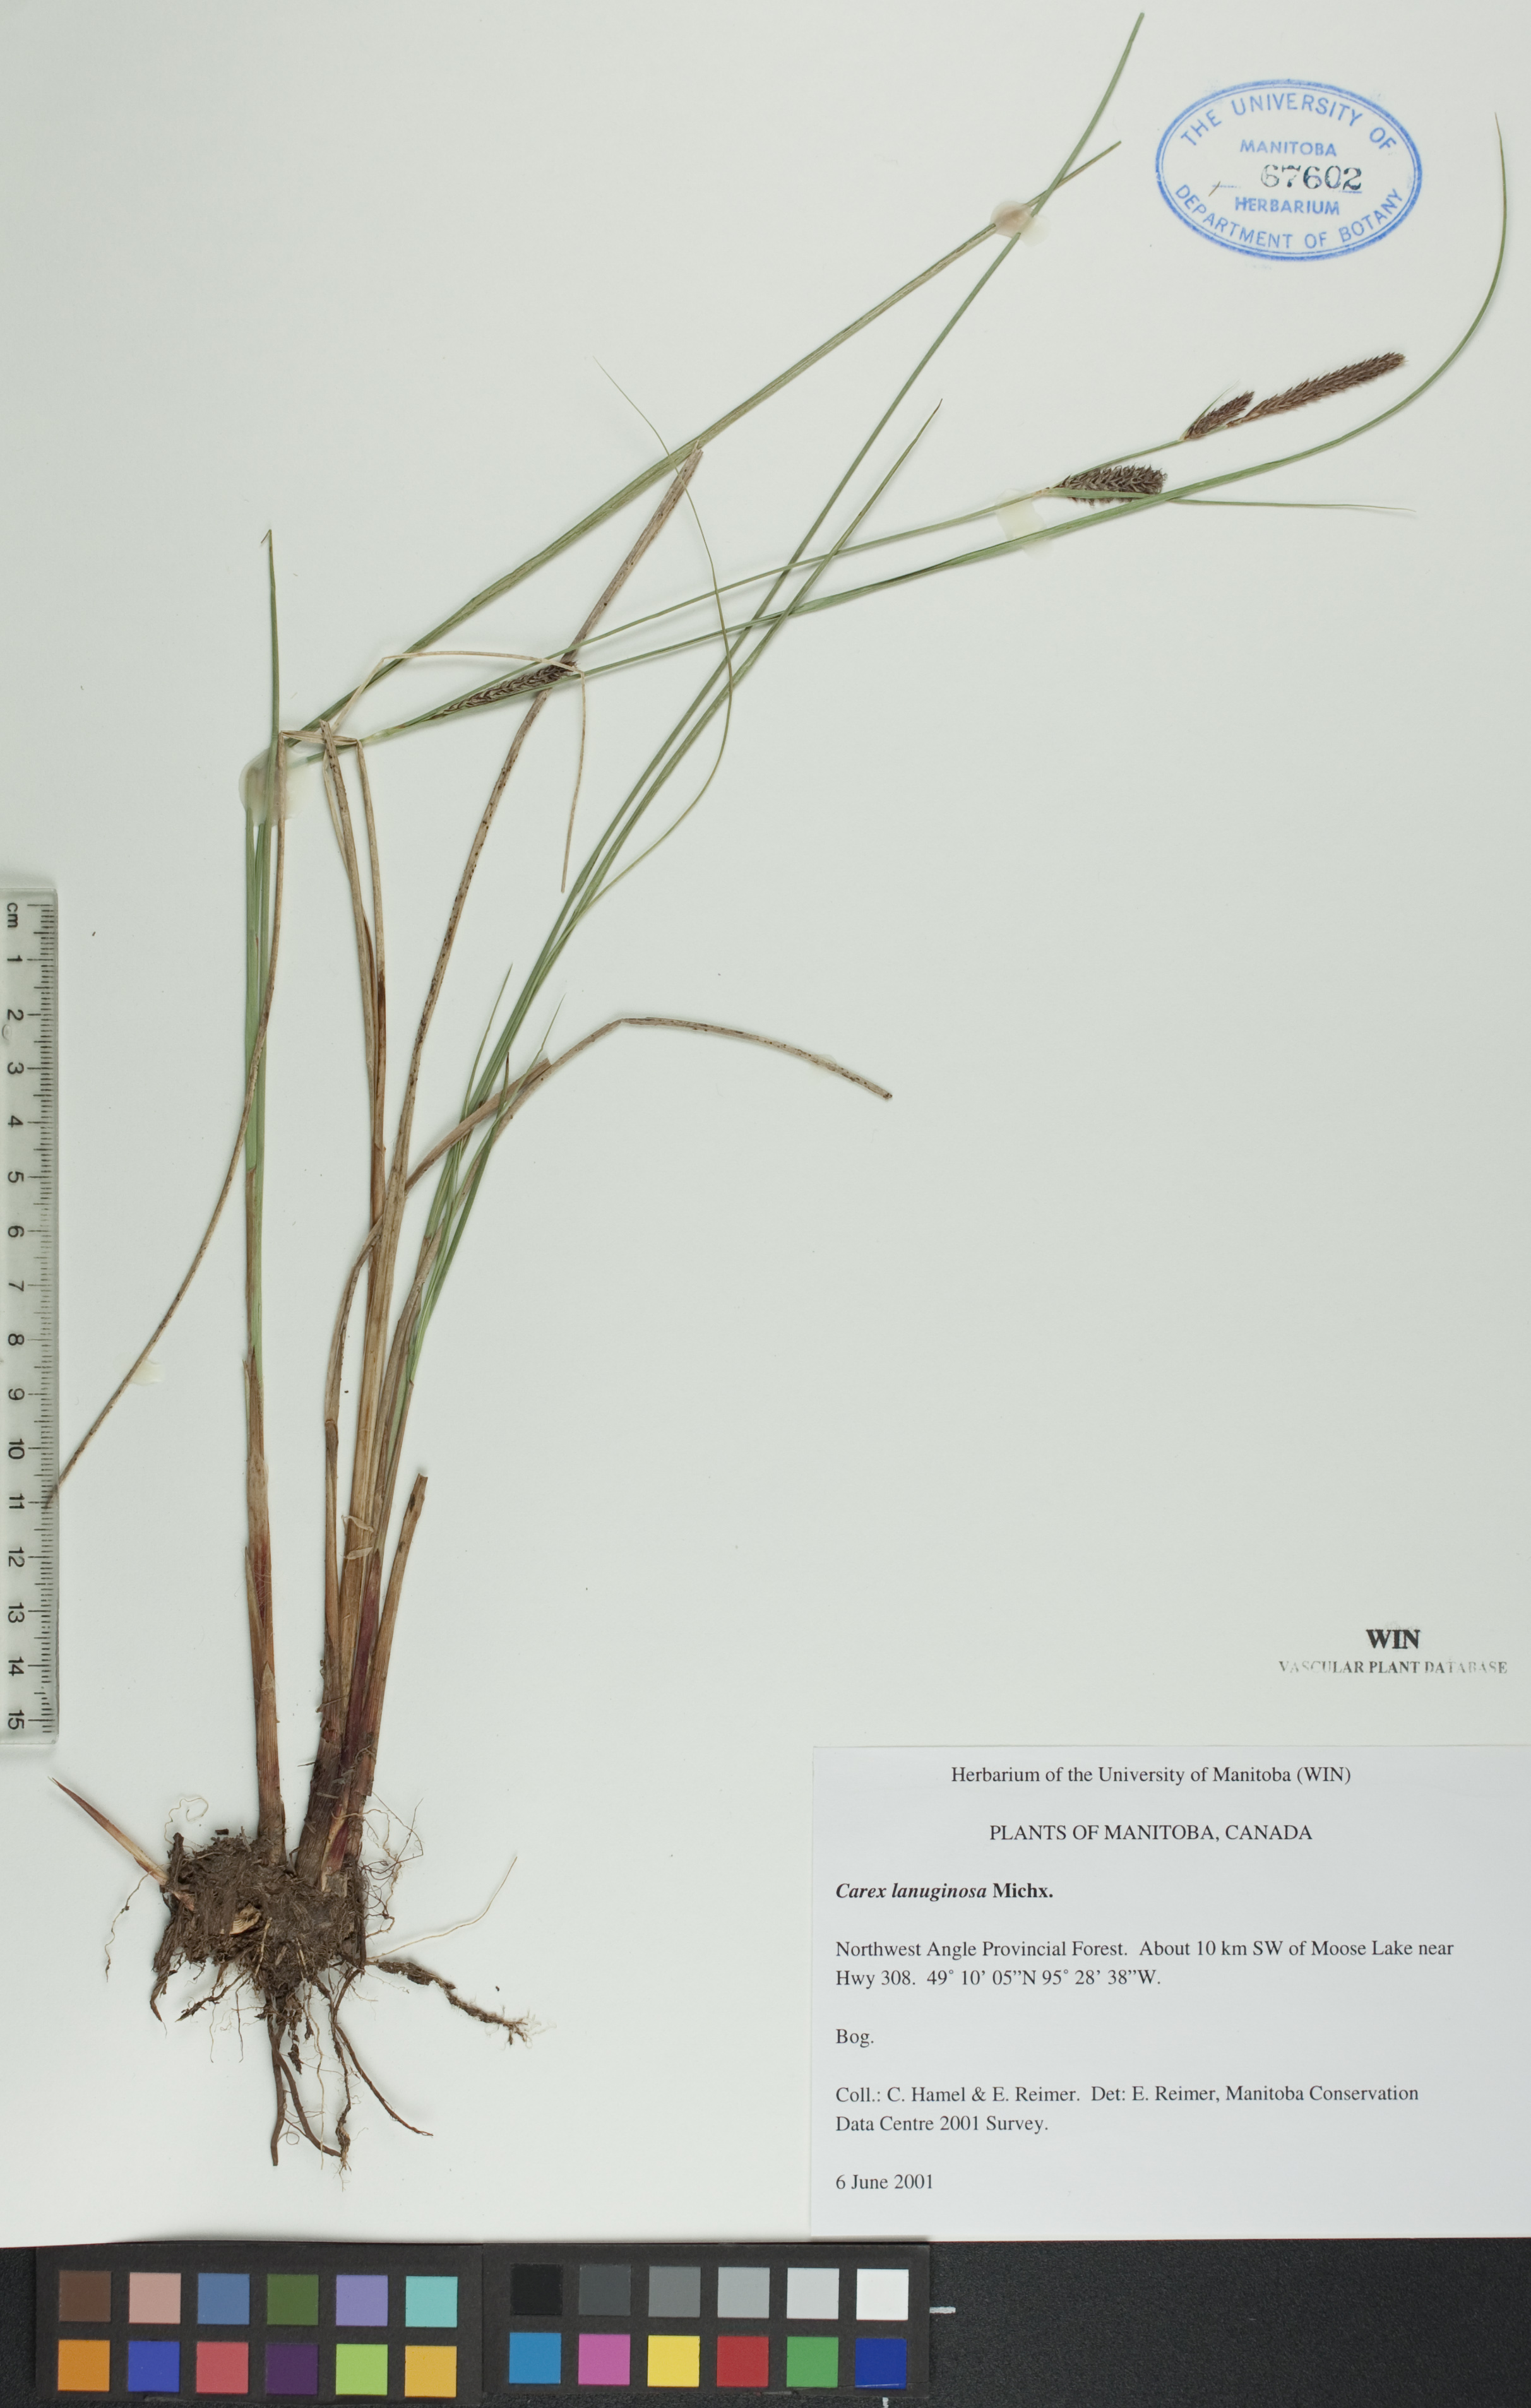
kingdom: Plantae
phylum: Tracheophyta
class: Liliopsida
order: Poales
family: Cyperaceae
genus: Carex
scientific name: Carex lasiocarpa
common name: Slender sedge
